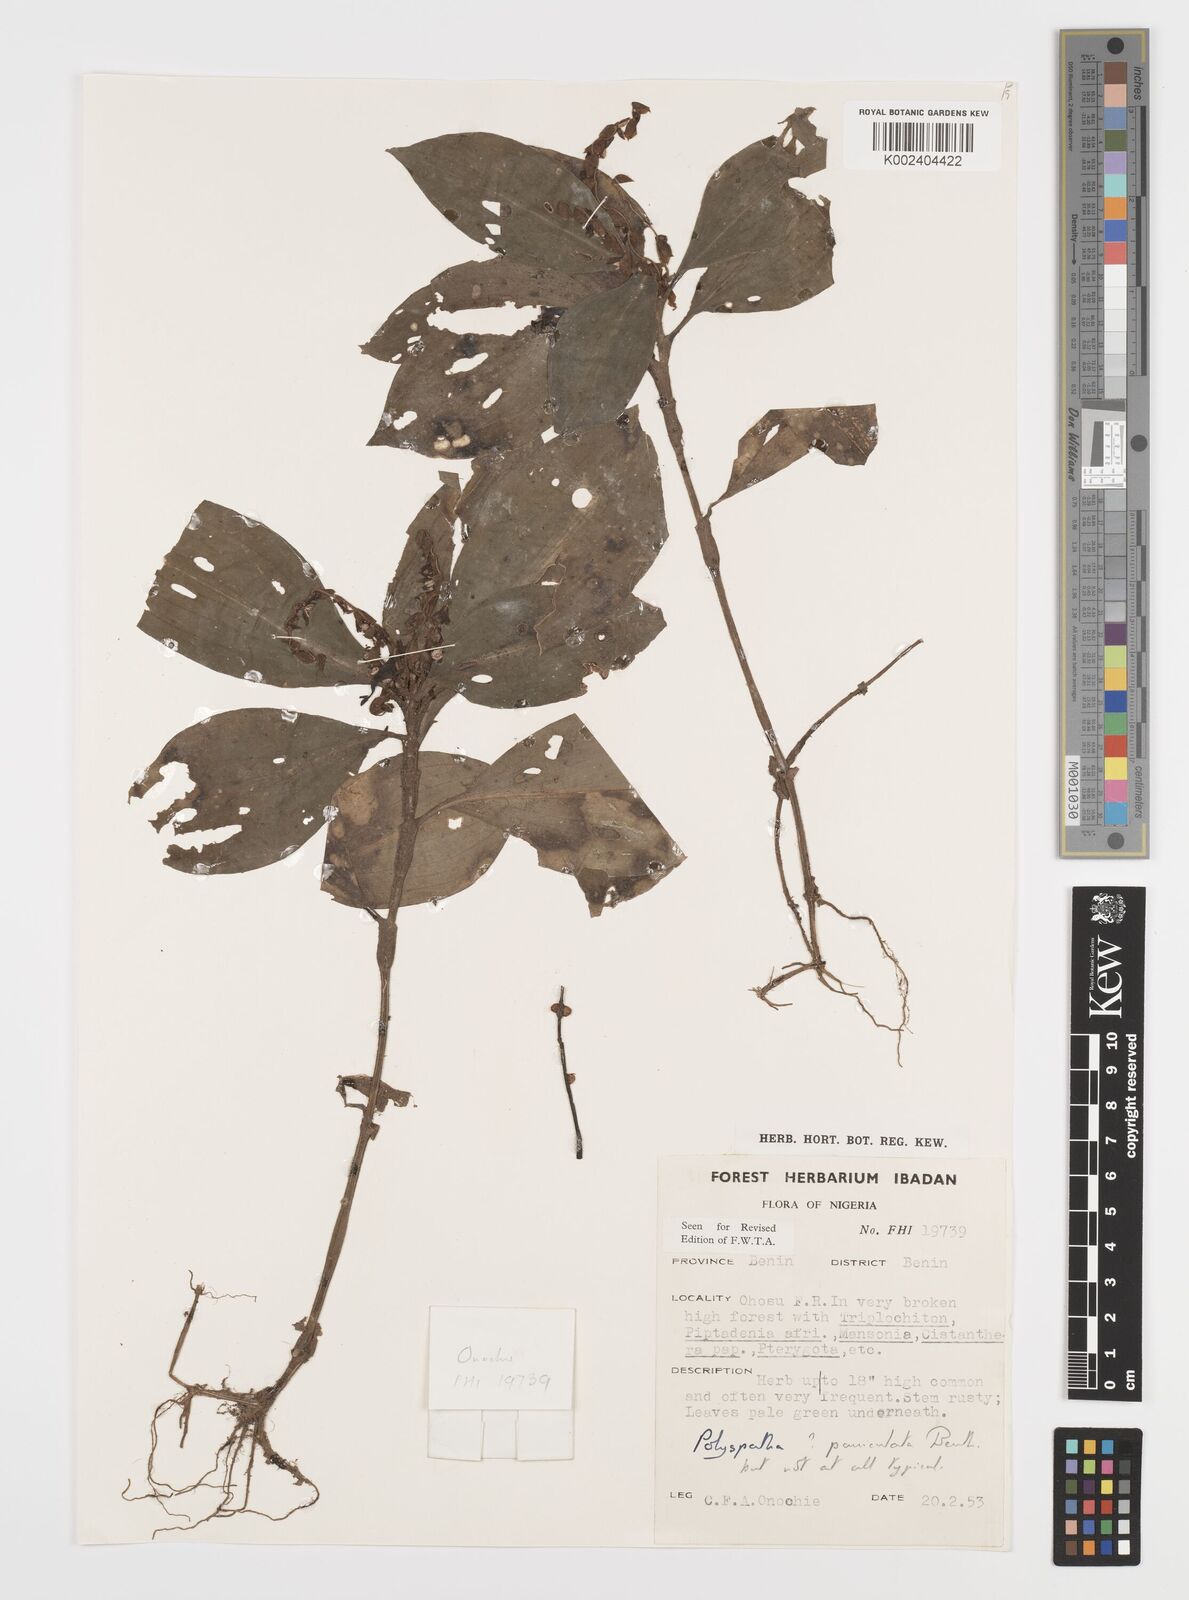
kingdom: Plantae
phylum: Tracheophyta
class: Liliopsida
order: Commelinales
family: Commelinaceae
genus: Polyspatha
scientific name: Polyspatha paniculata
